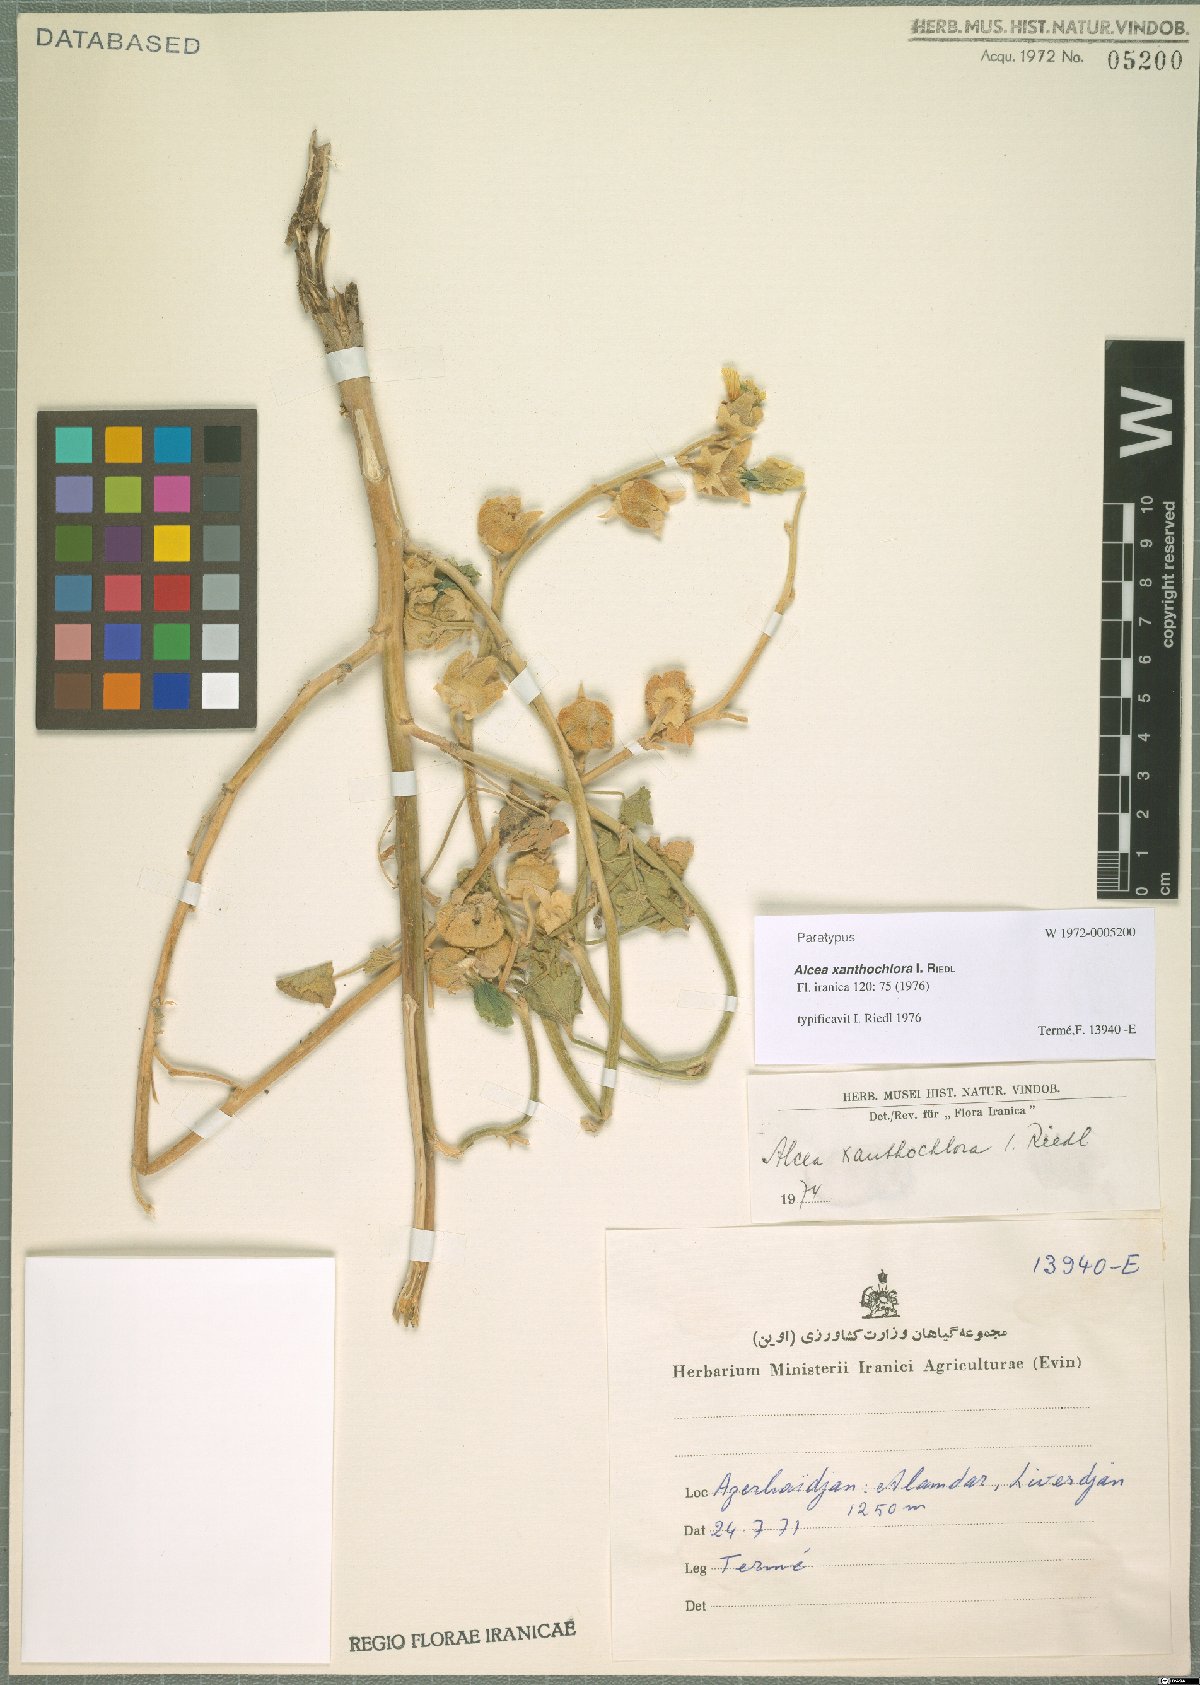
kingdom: Plantae
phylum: Tracheophyta
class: Magnoliopsida
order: Malvales
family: Malvaceae
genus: Alcea
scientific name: Alcea xanthochlora
